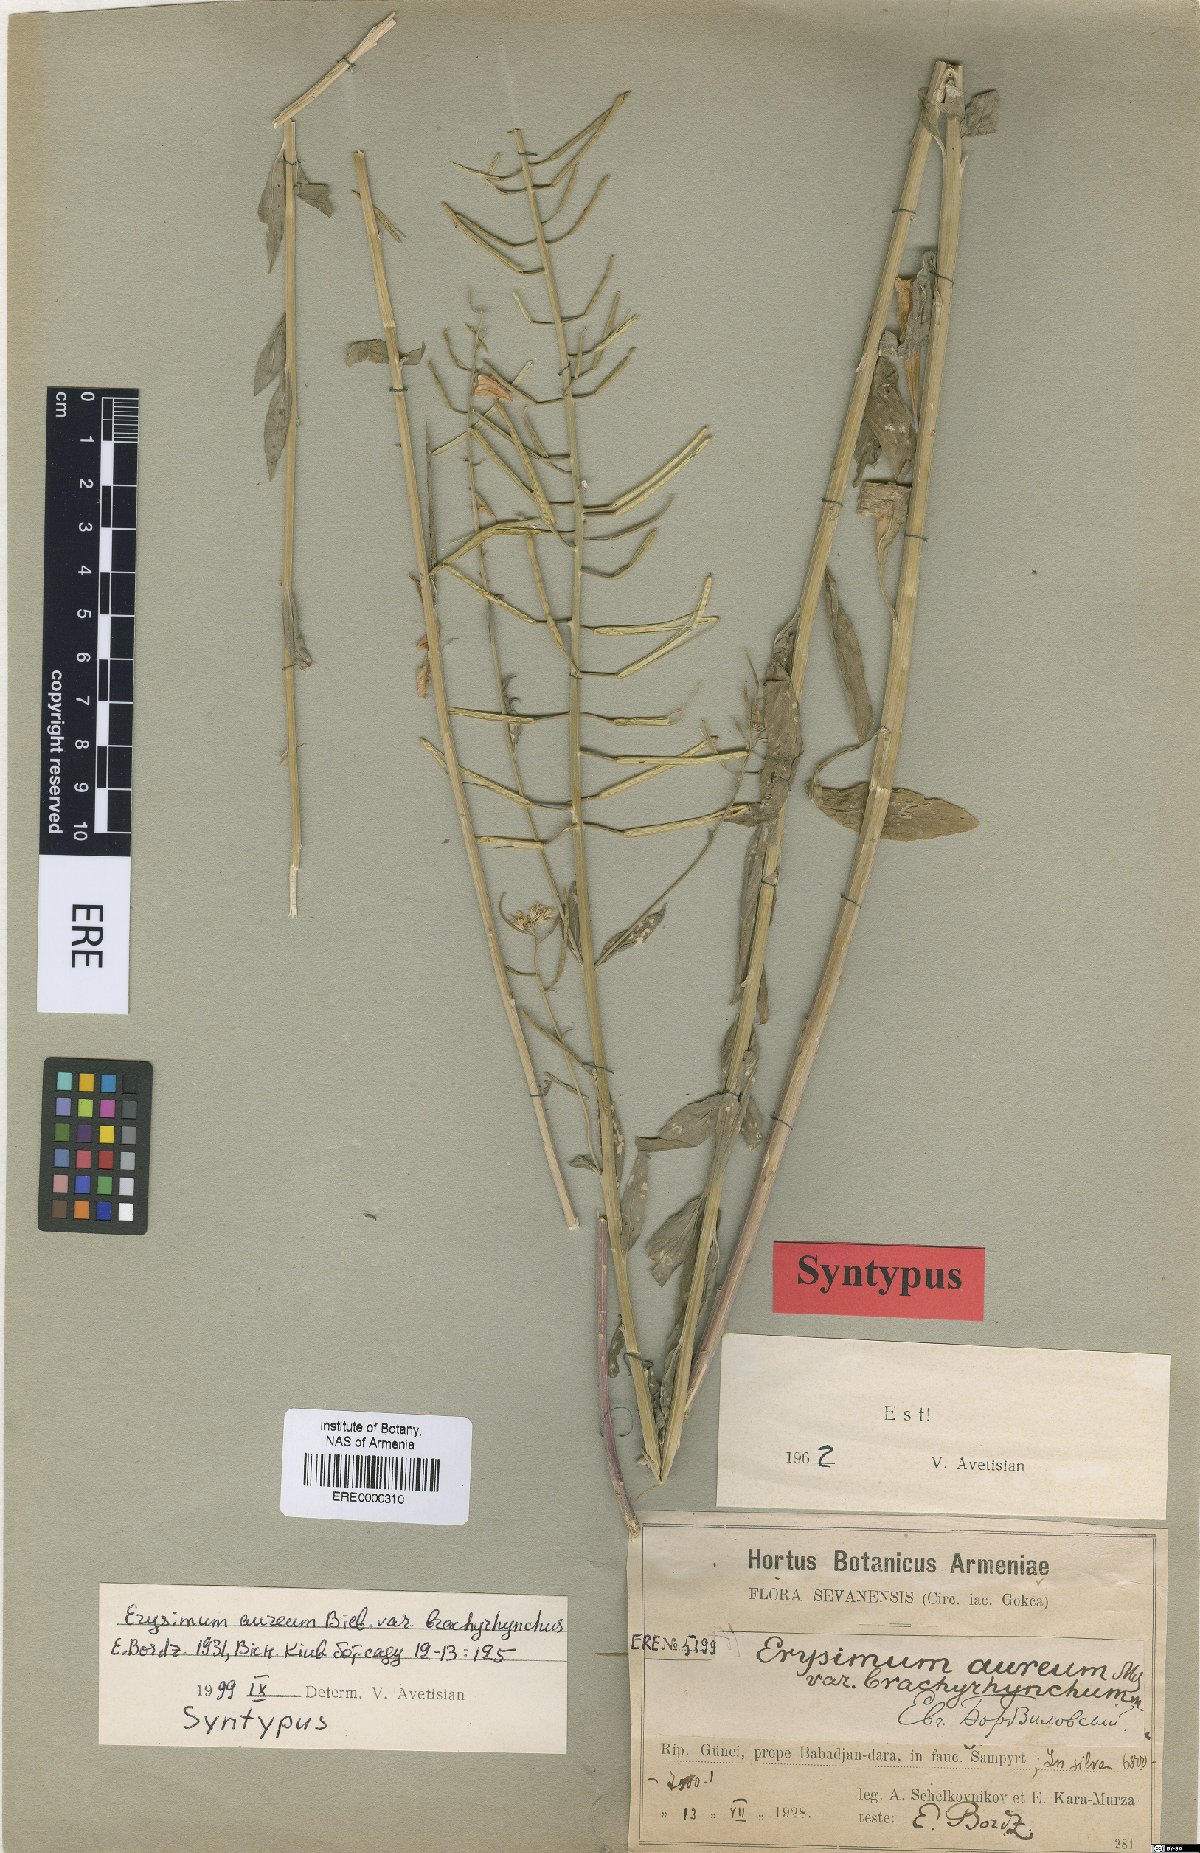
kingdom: Plantae
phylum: Tracheophyta
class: Magnoliopsida
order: Brassicales
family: Brassicaceae
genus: Erysimum
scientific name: Erysimum aureum
